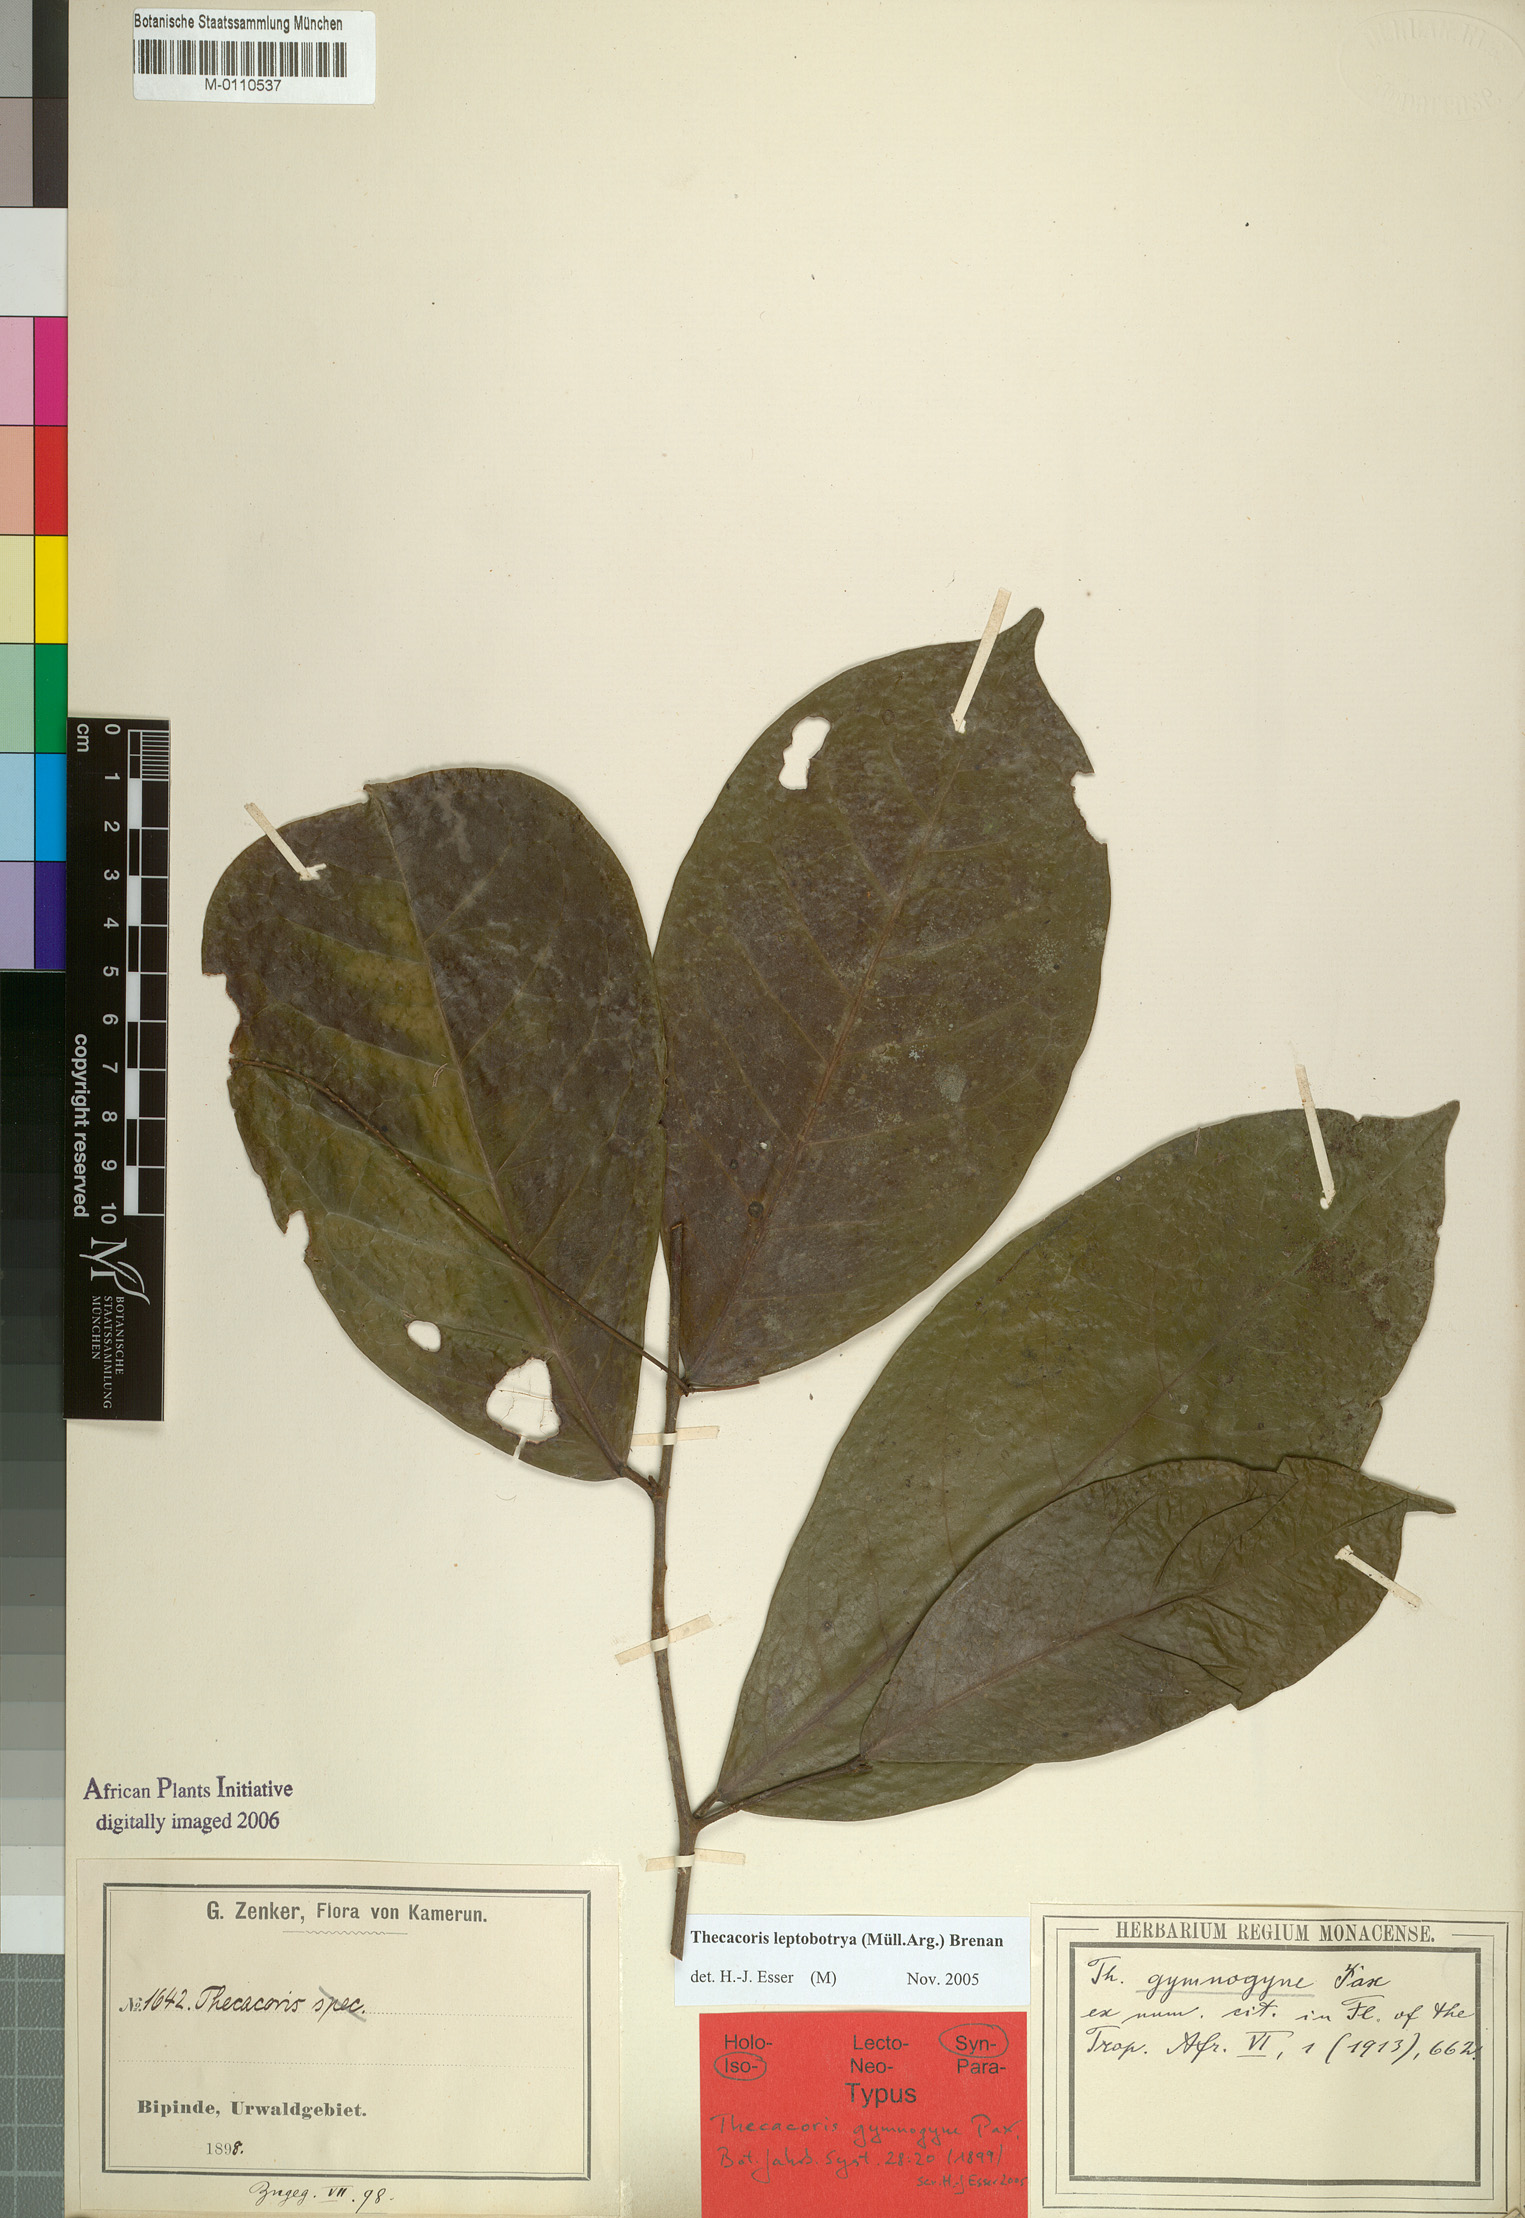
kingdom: Plantae
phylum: Tracheophyta
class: Magnoliopsida
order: Malpighiales
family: Phyllanthaceae
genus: Thecacoris
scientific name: Thecacoris leptobotrya
